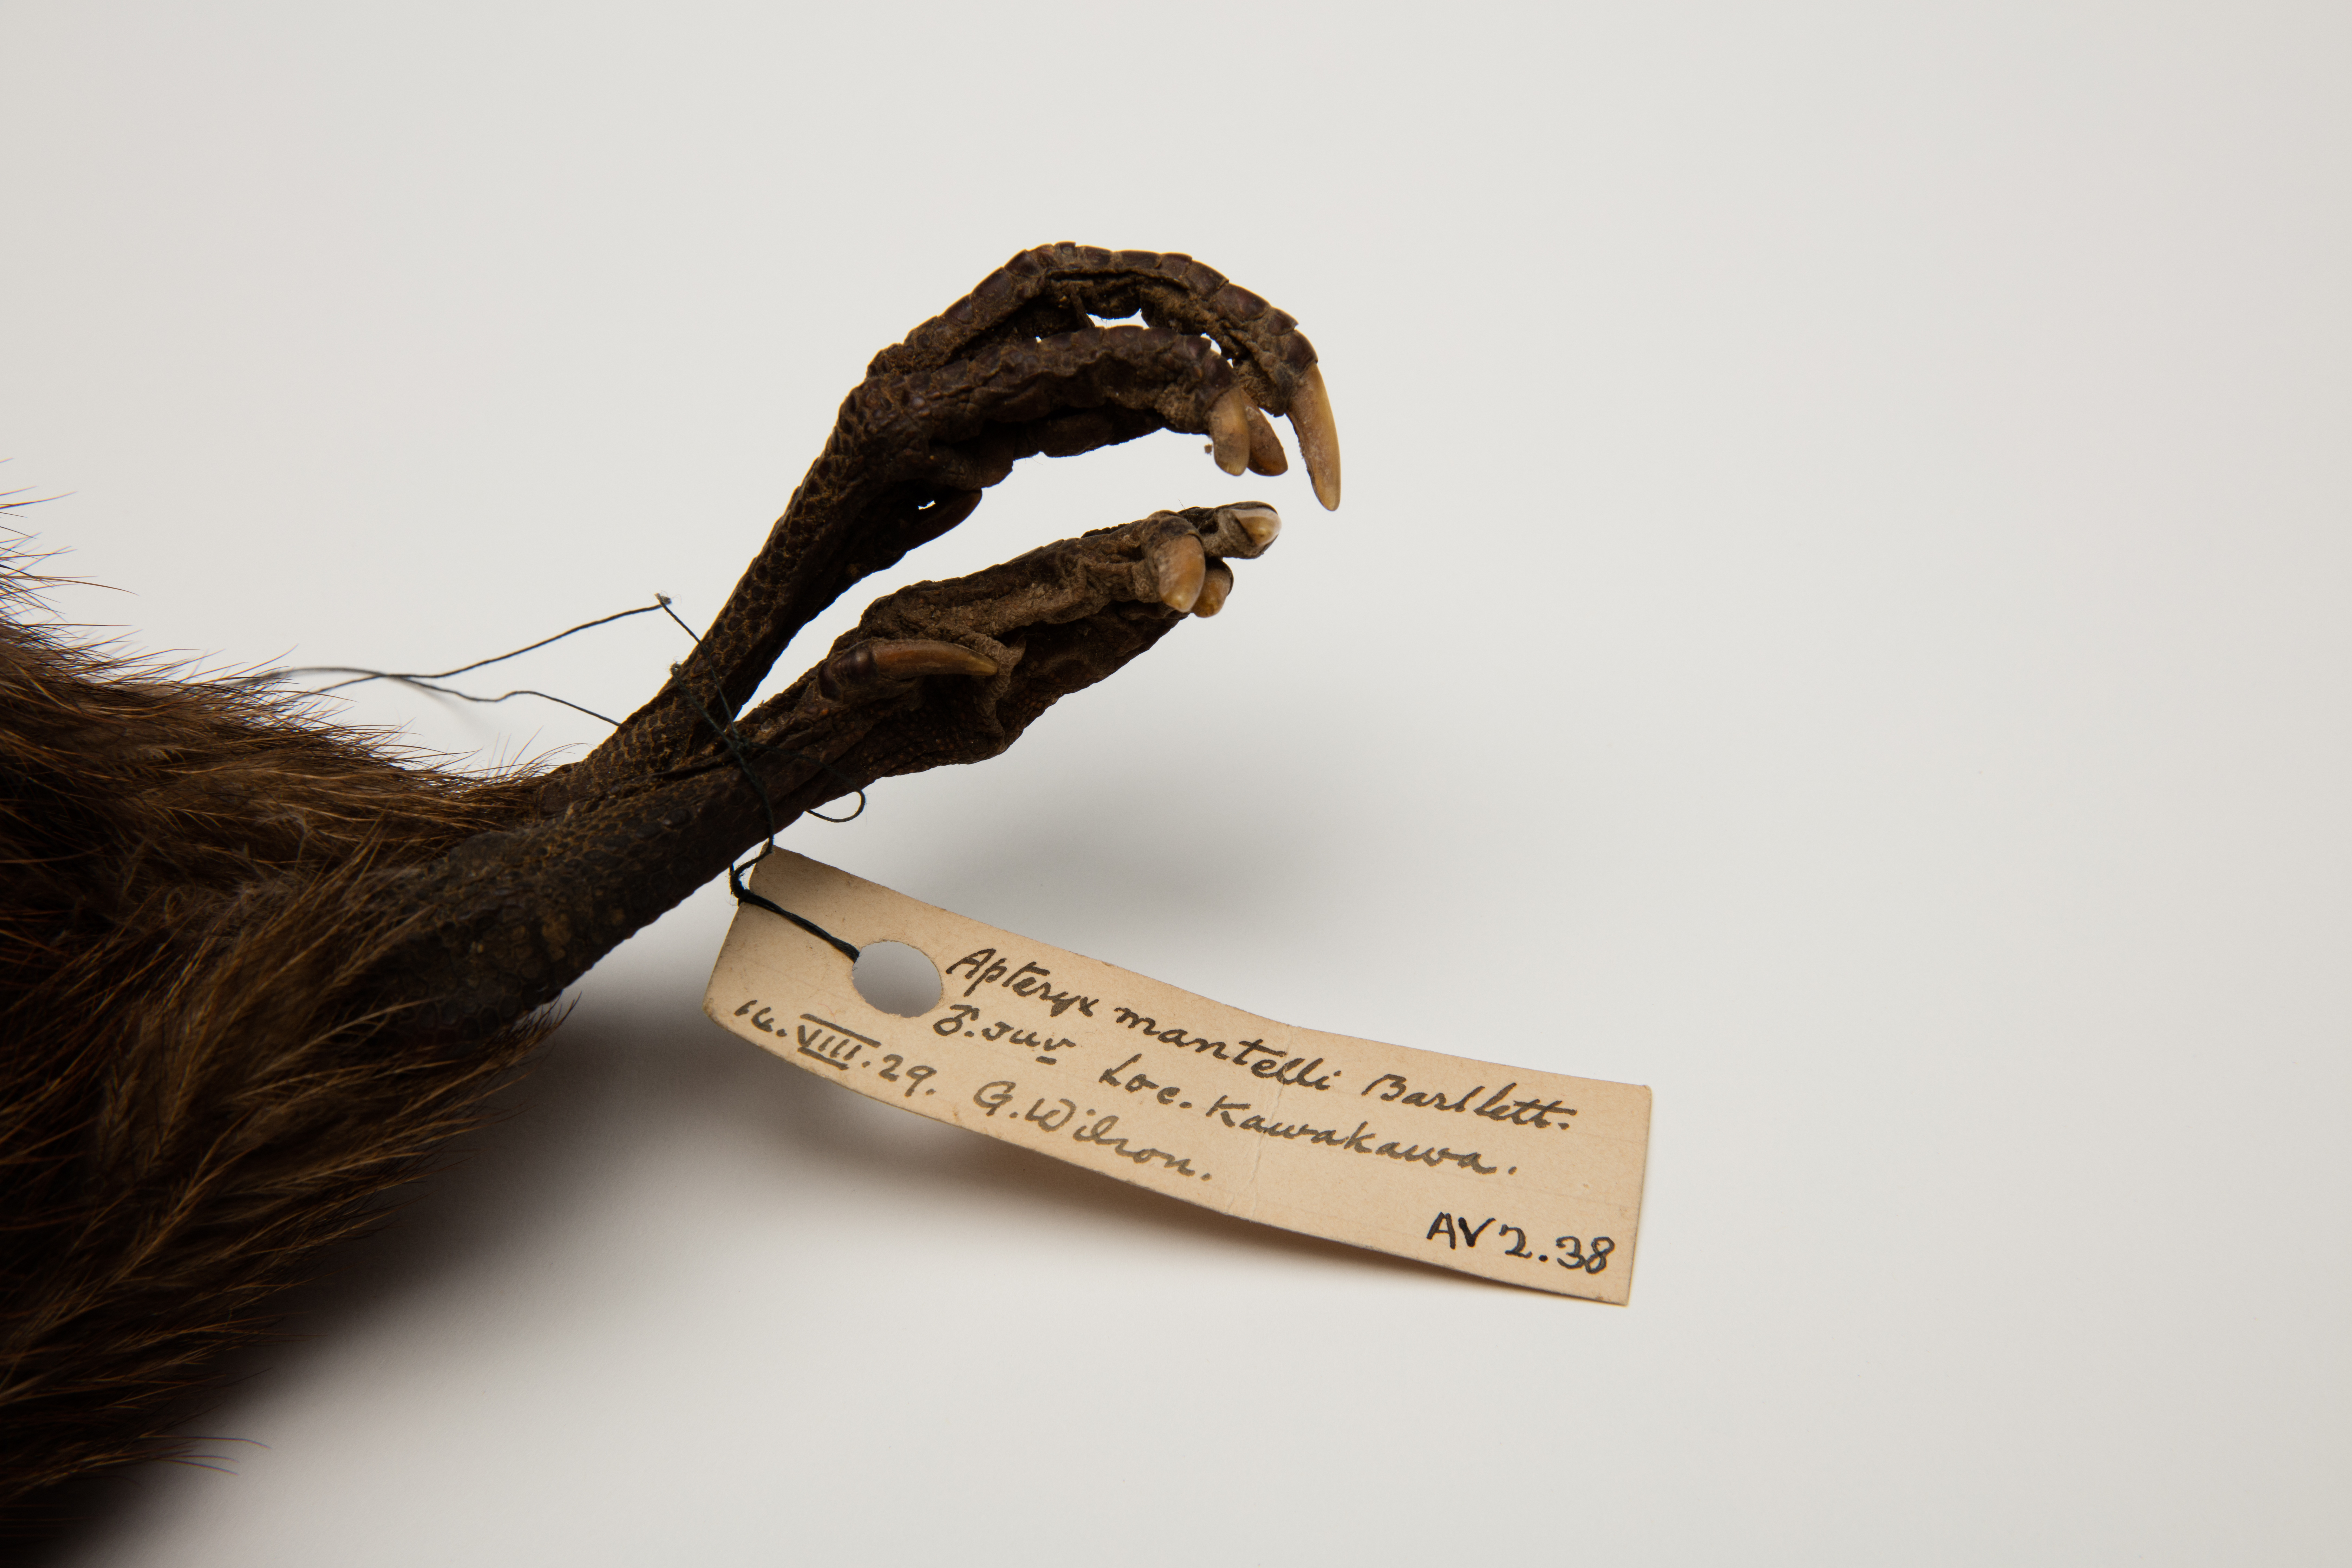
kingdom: Animalia
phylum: Chordata
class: Aves
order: Apterygiformes
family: Apterygidae
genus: Apteryx
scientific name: Apteryx mantelli
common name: North island brown kiwi
